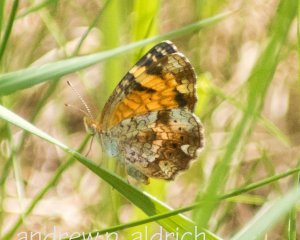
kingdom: Animalia
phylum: Arthropoda
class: Insecta
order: Lepidoptera
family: Nymphalidae
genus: Phyciodes
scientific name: Phyciodes tharos
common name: Pearl Crescent
